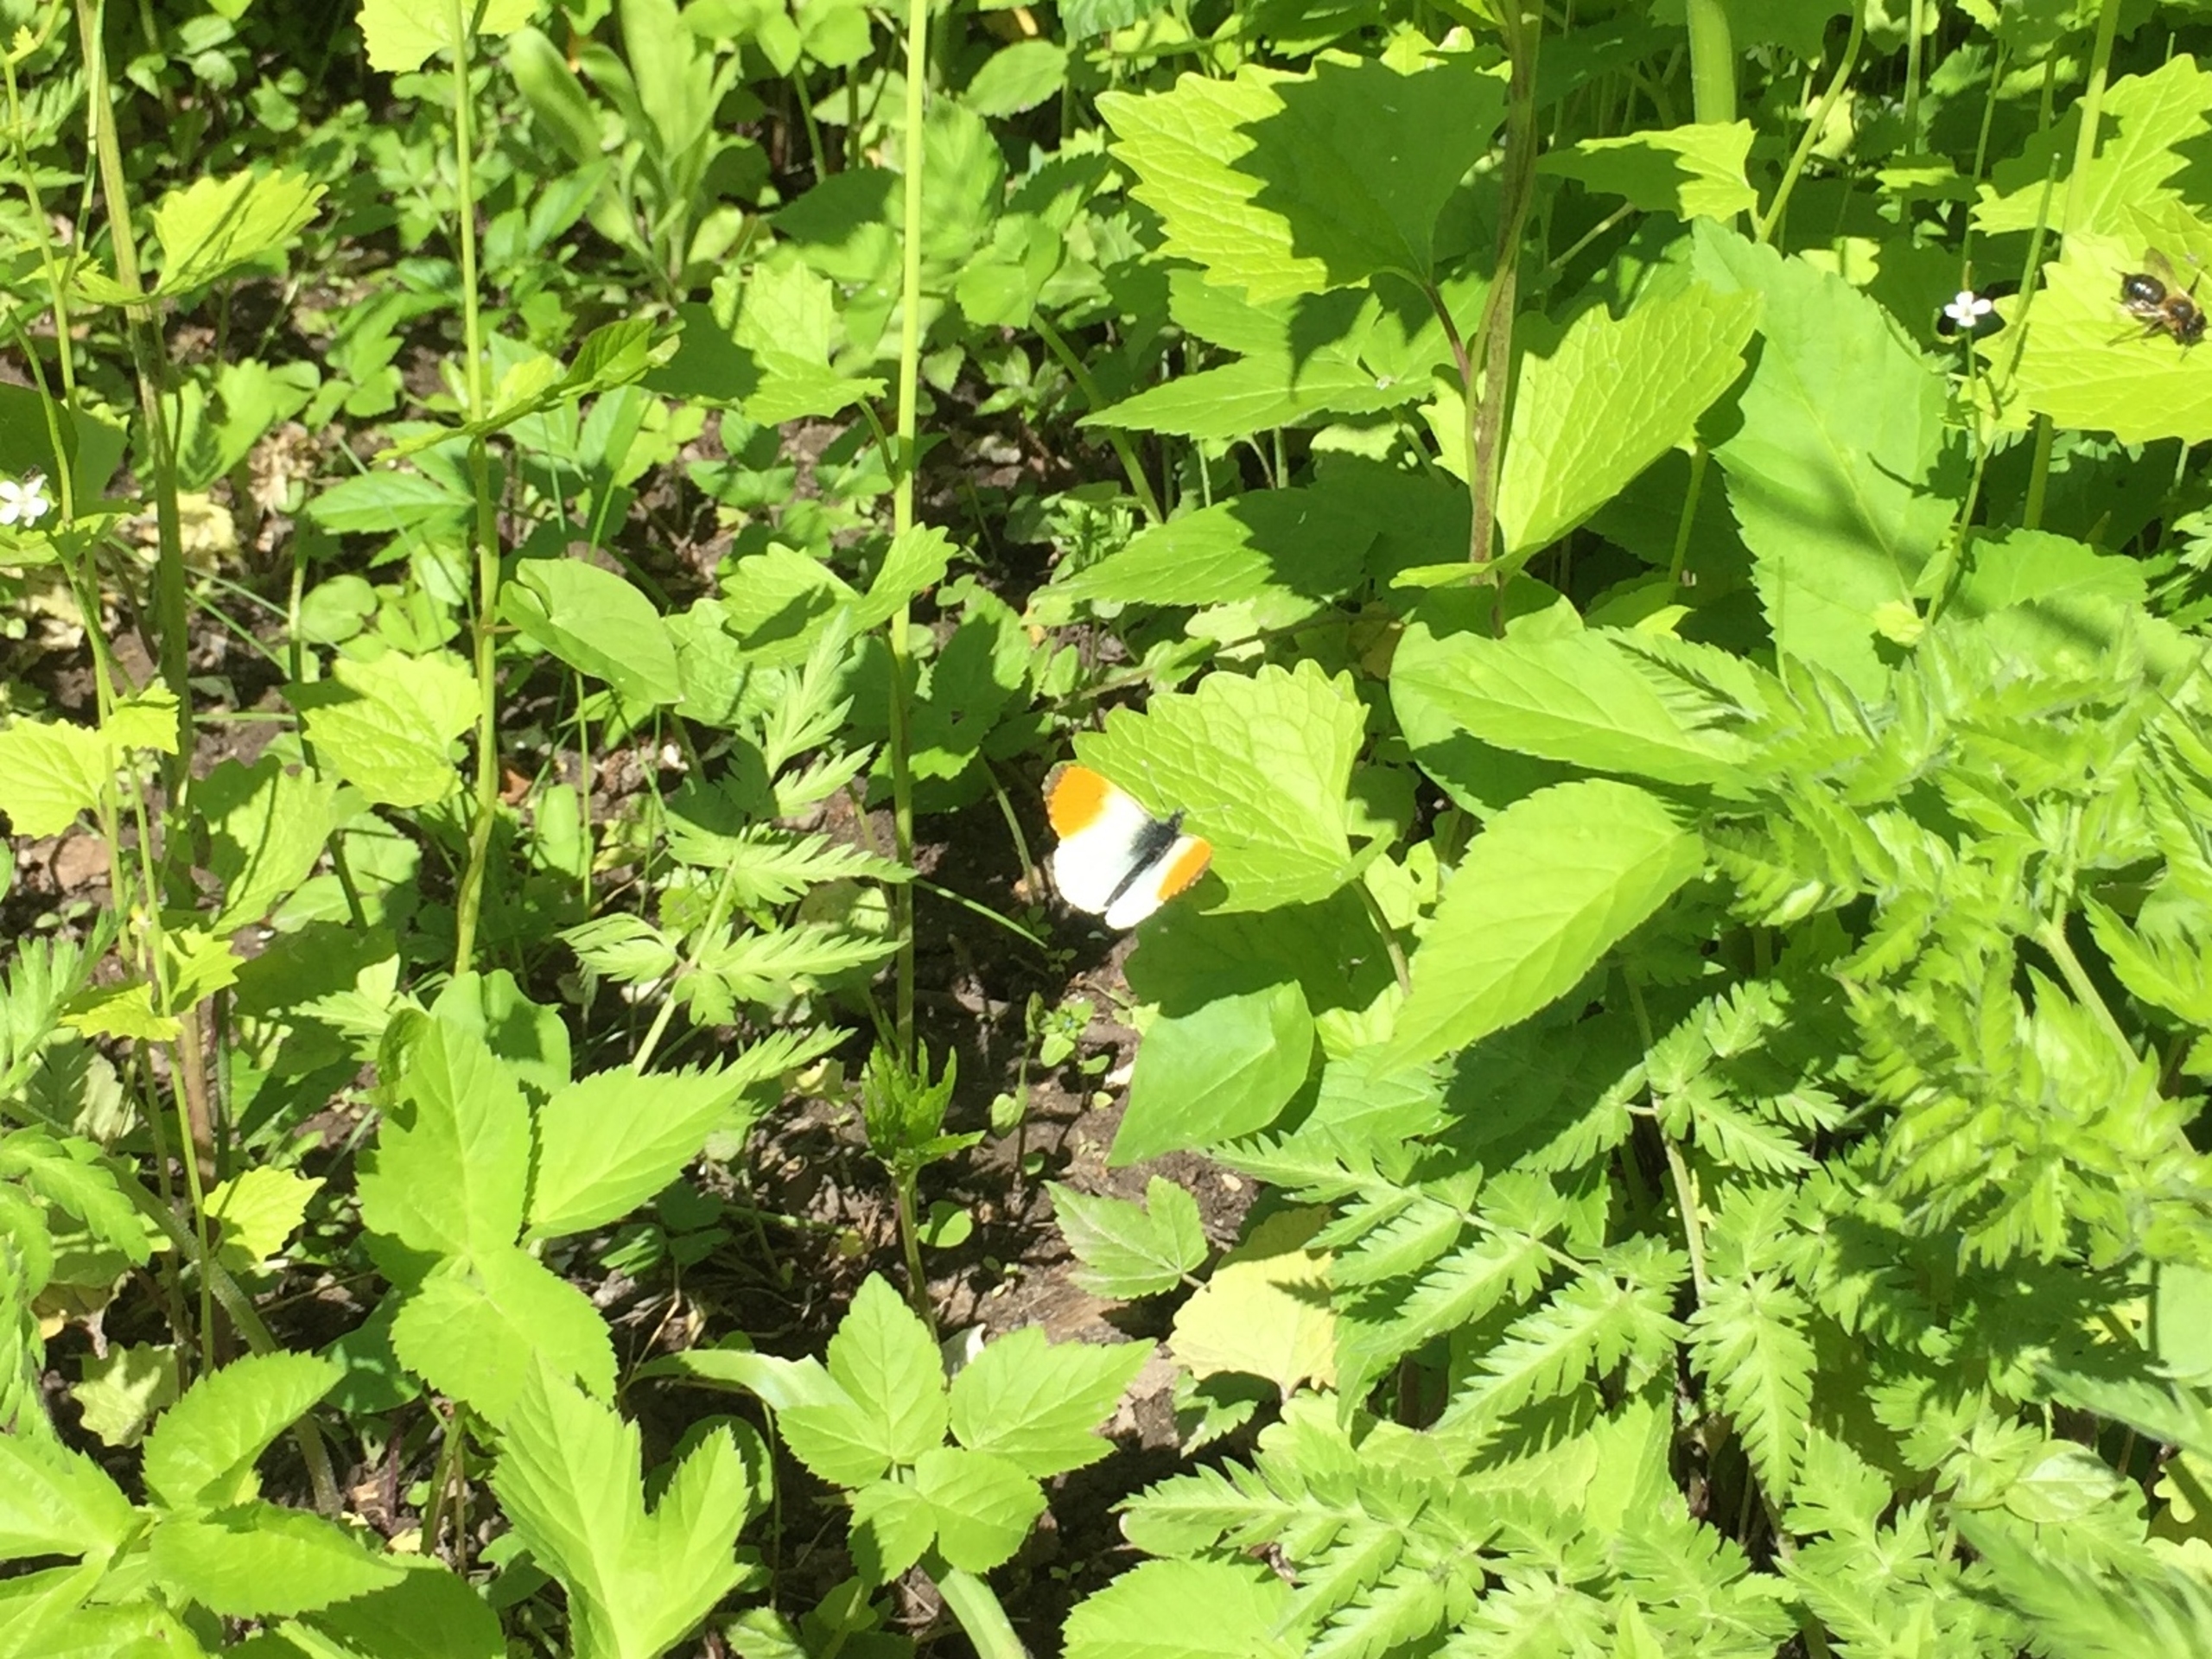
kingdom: Animalia
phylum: Arthropoda
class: Insecta
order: Lepidoptera
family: Pieridae
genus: Anthocharis
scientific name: Anthocharis cardamines
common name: Aurora
